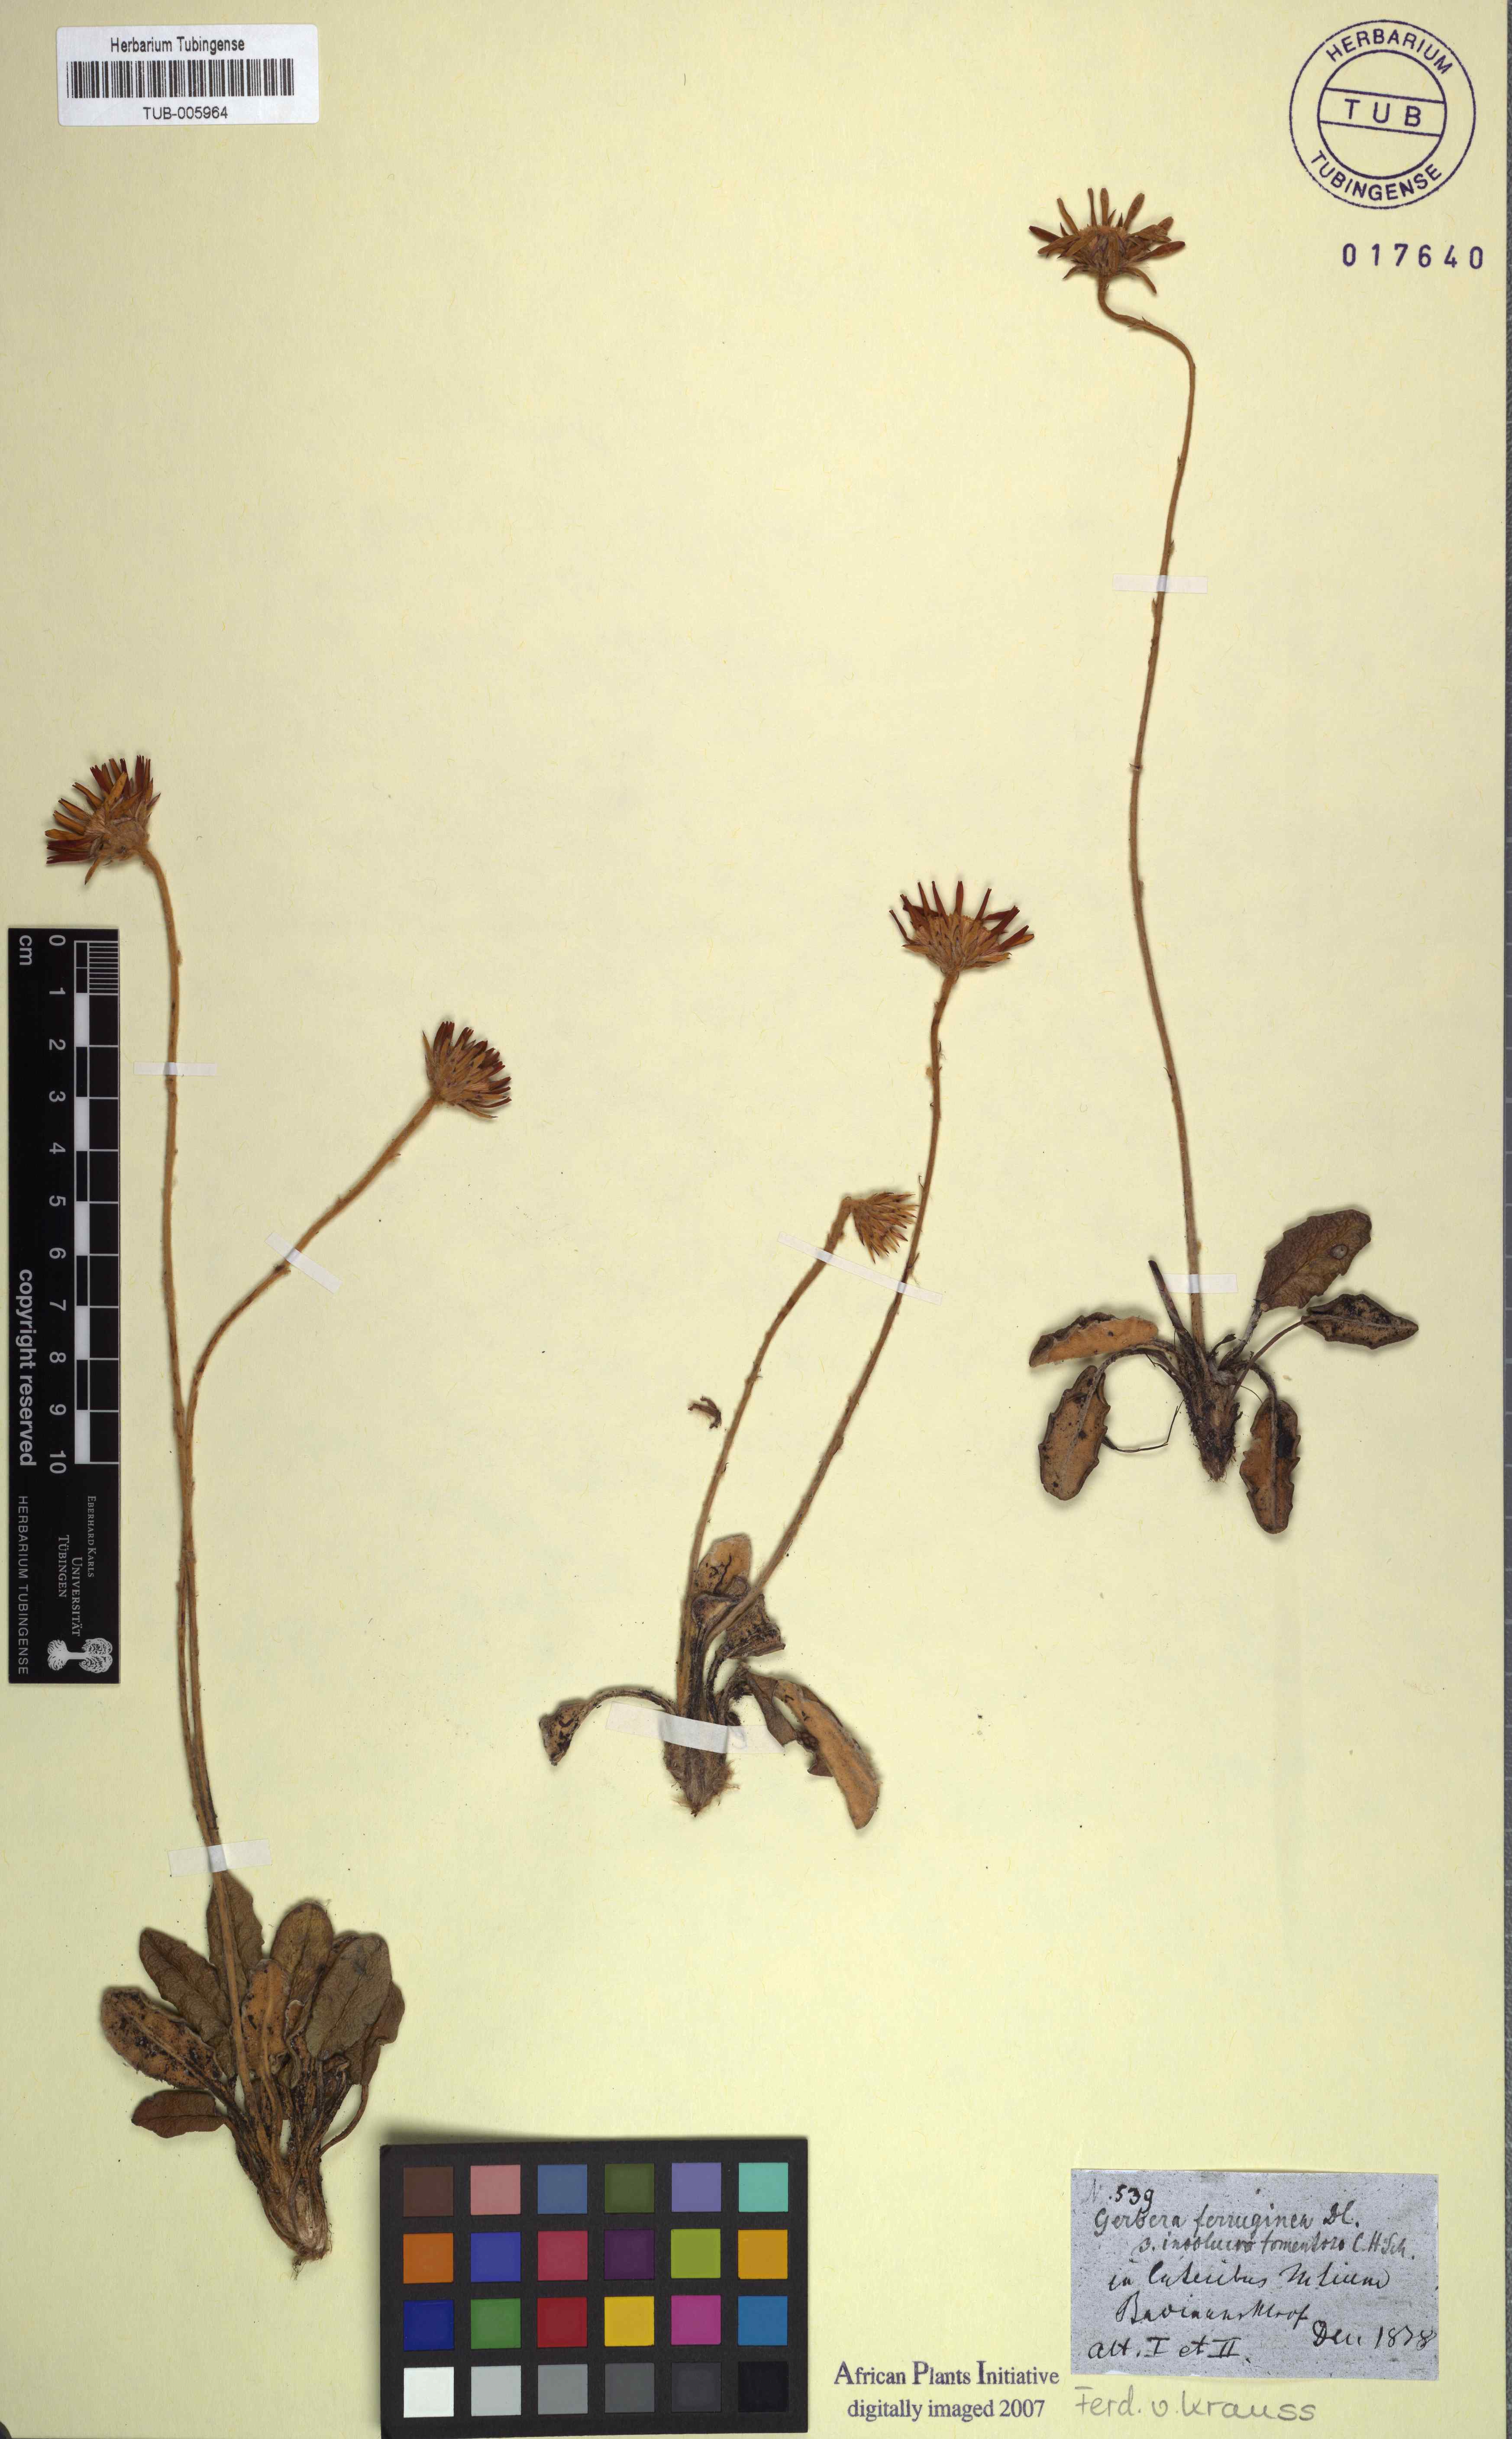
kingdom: Plantae
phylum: Tracheophyta
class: Magnoliopsida
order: Asterales
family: Asteraceae
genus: Gerbera
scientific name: Gerbera crocea
